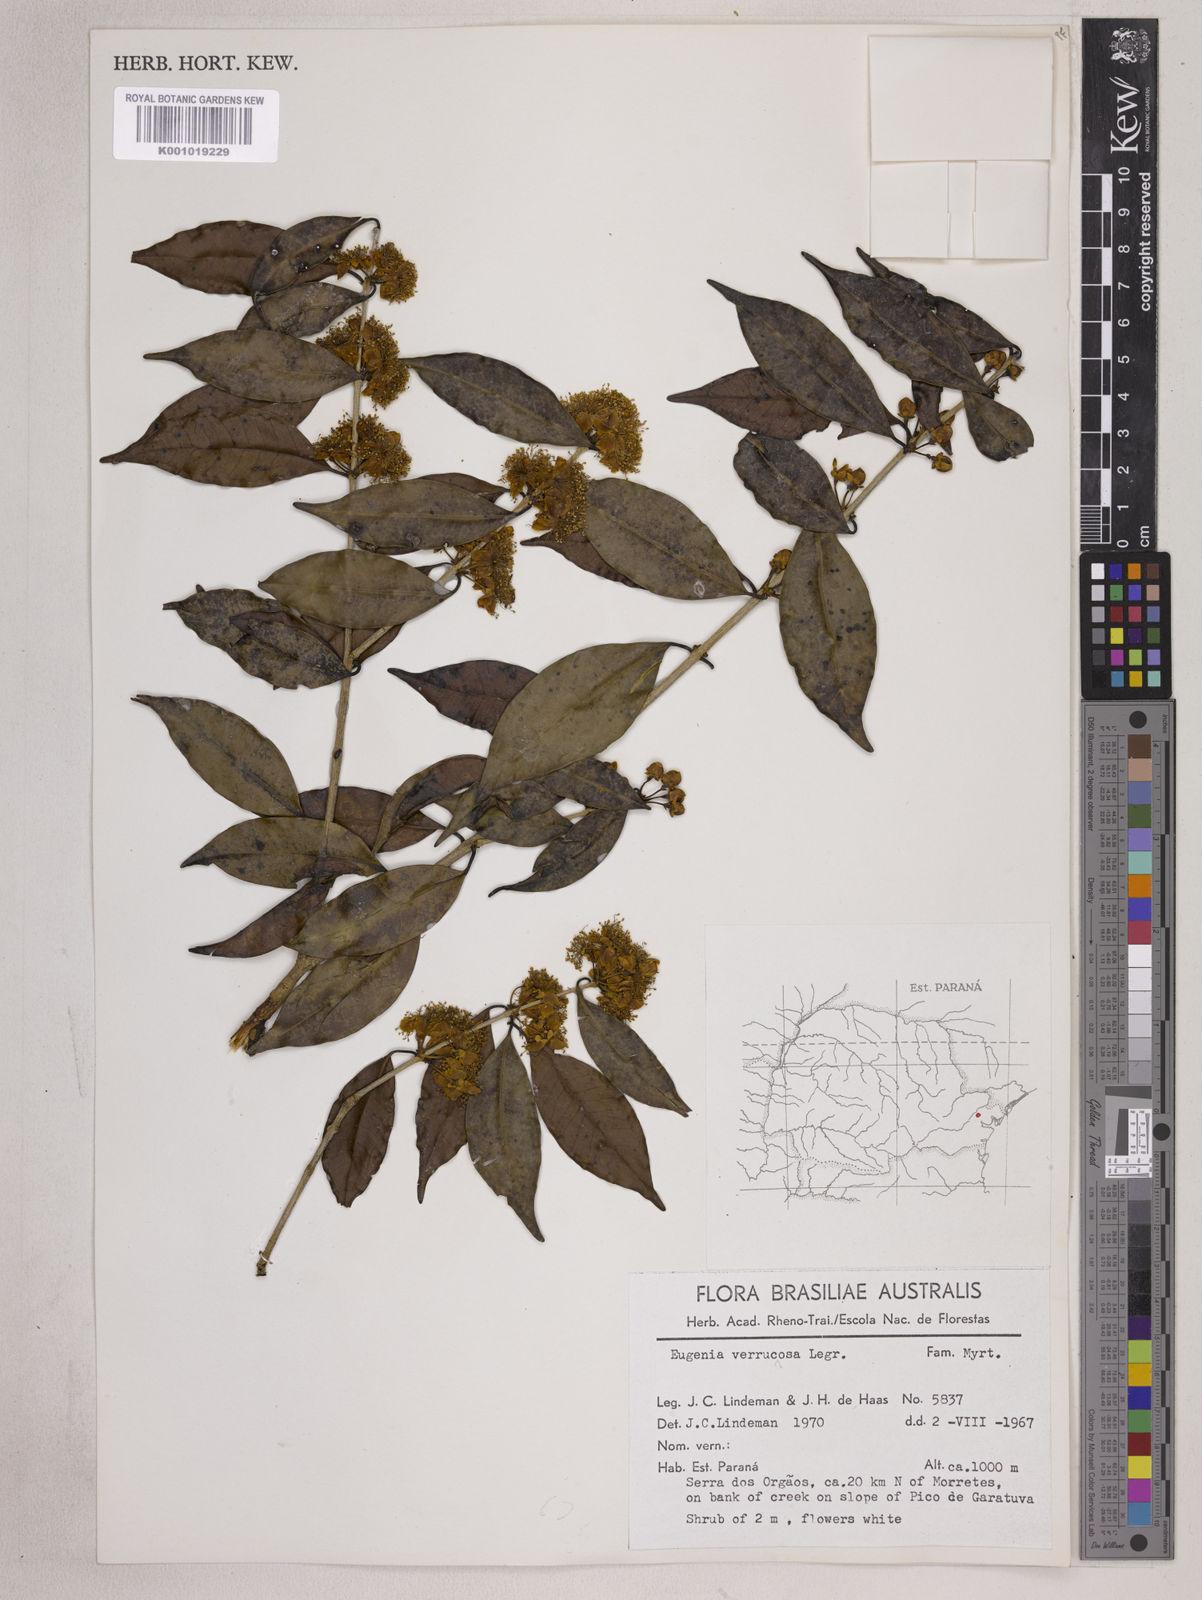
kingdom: Plantae
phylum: Tracheophyta
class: Magnoliopsida
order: Myrtales
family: Myrtaceae
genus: Eugenia
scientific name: Eugenia neoverrucosa
